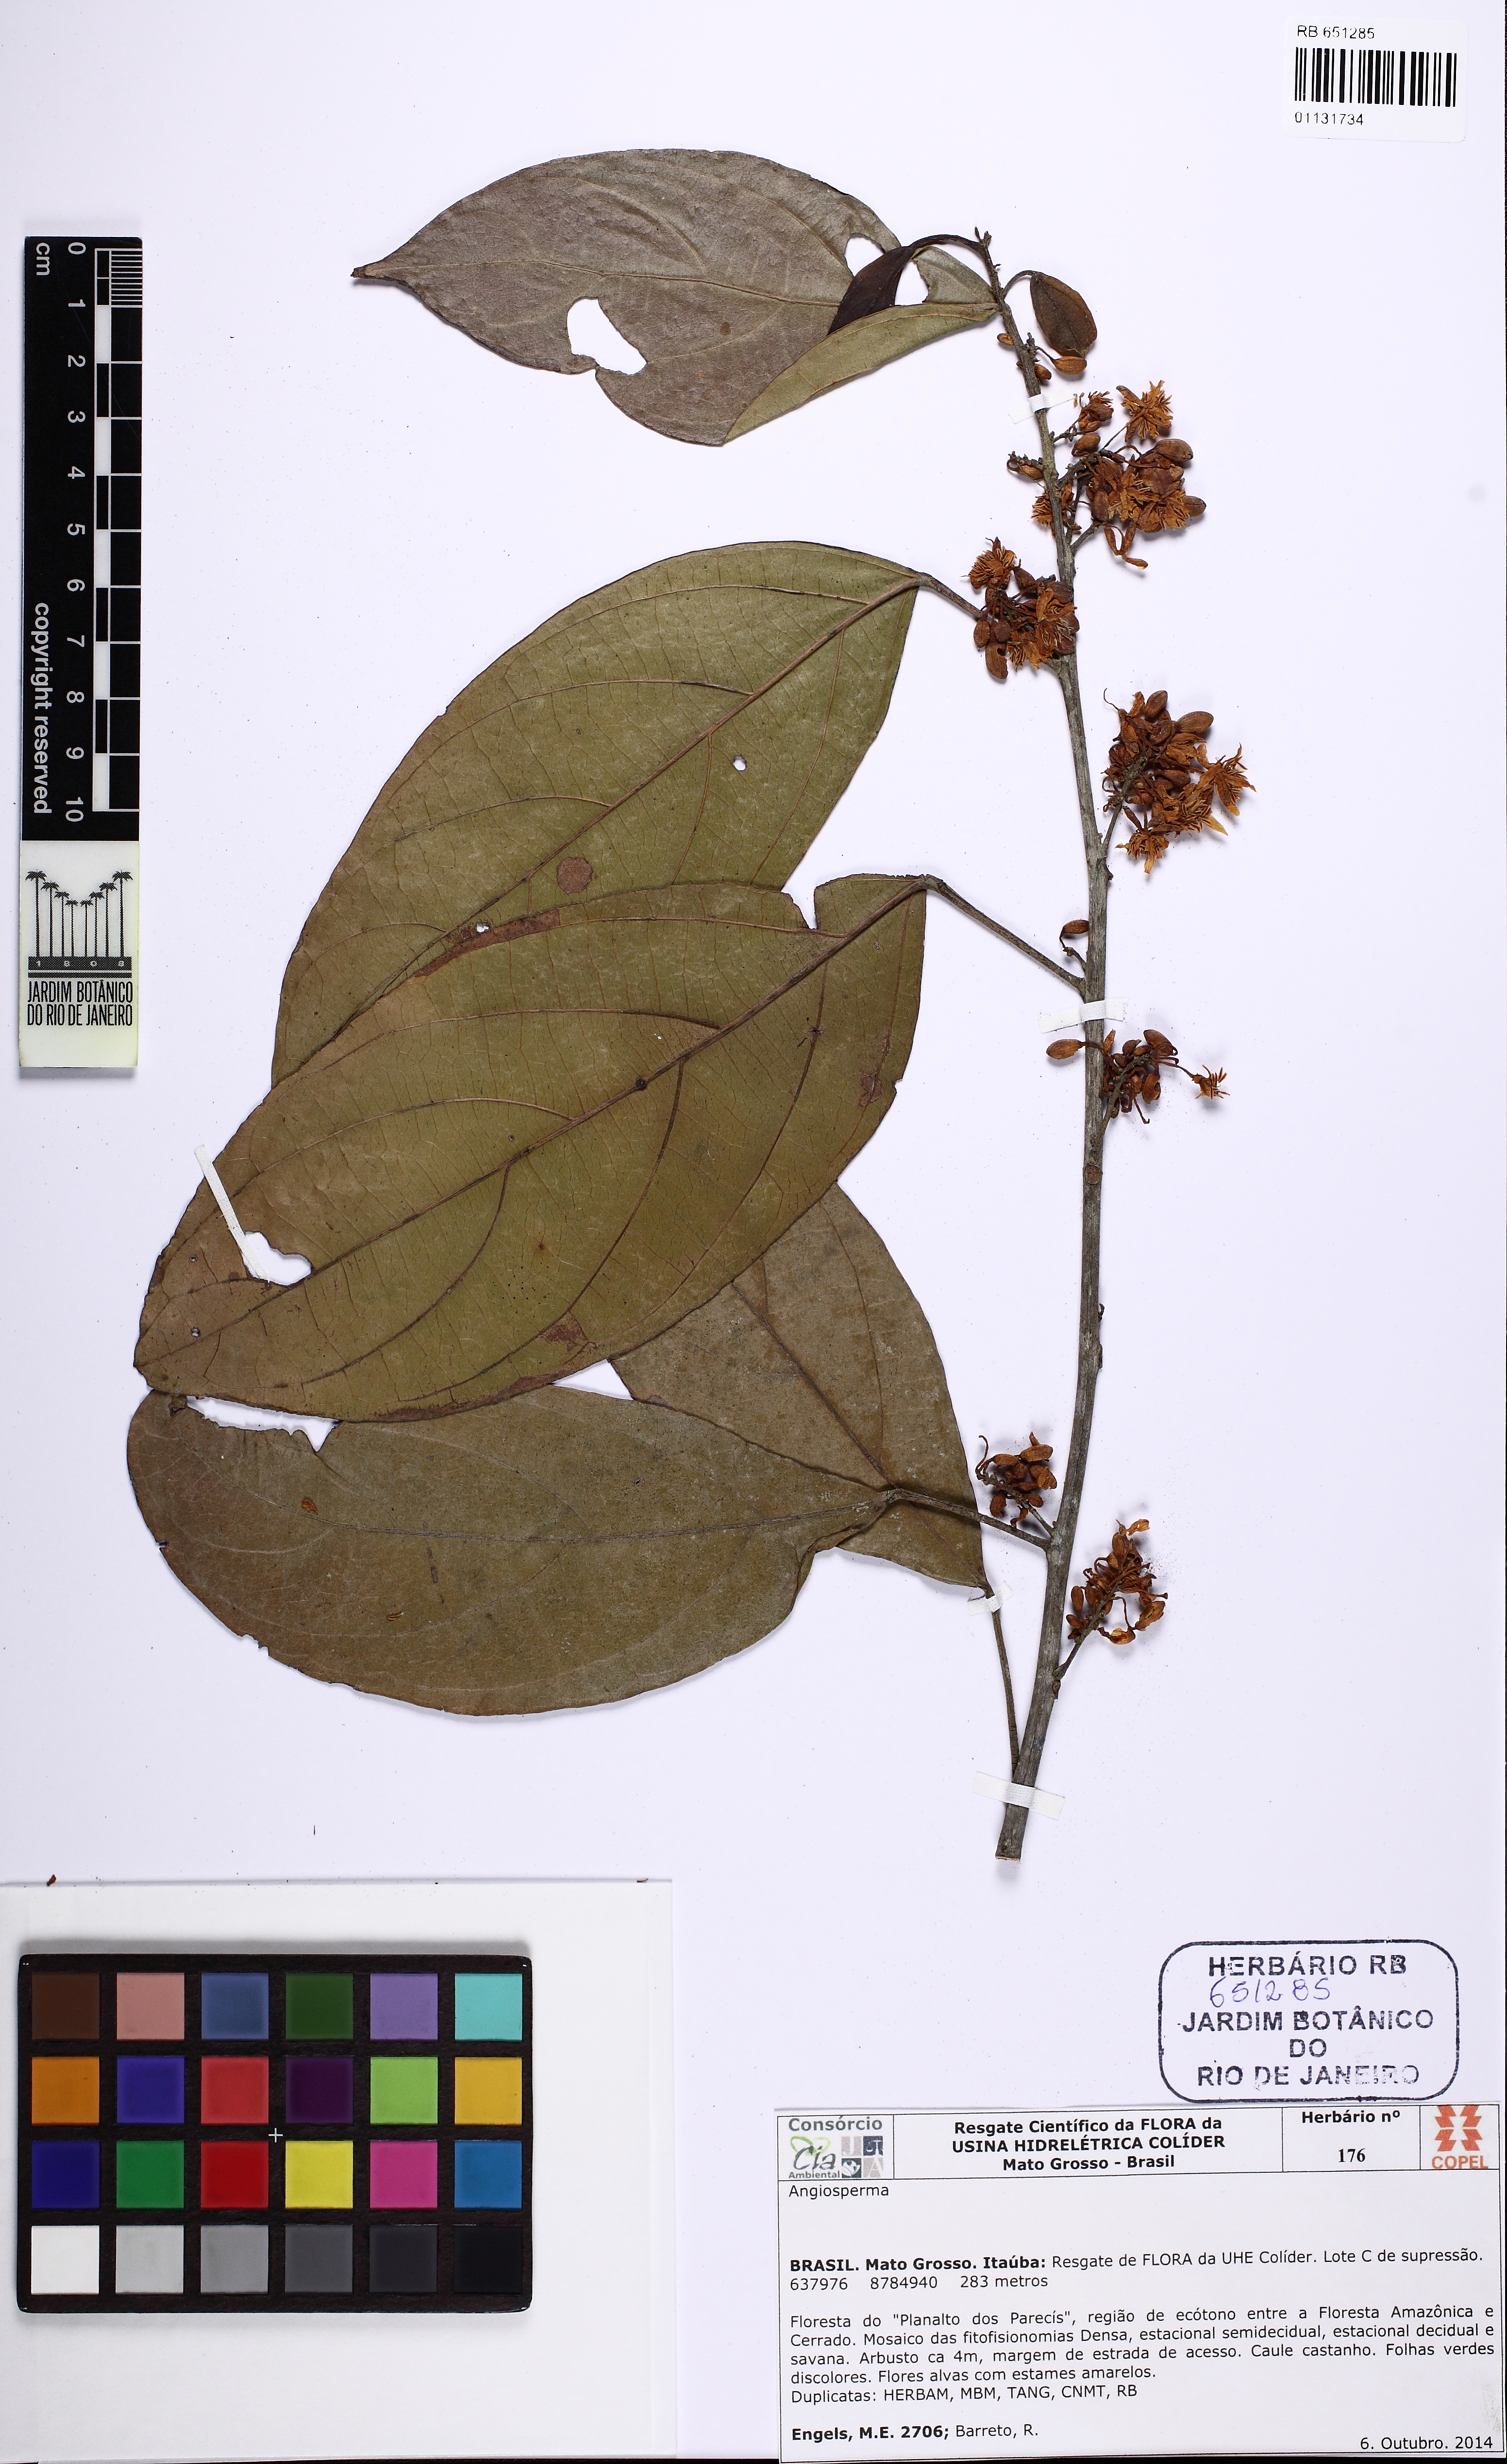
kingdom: Plantae
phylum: Tracheophyta
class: Magnoliopsida
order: Malpighiales
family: Achariaceae
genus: Lindackeria
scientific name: Lindackeria paludosa
